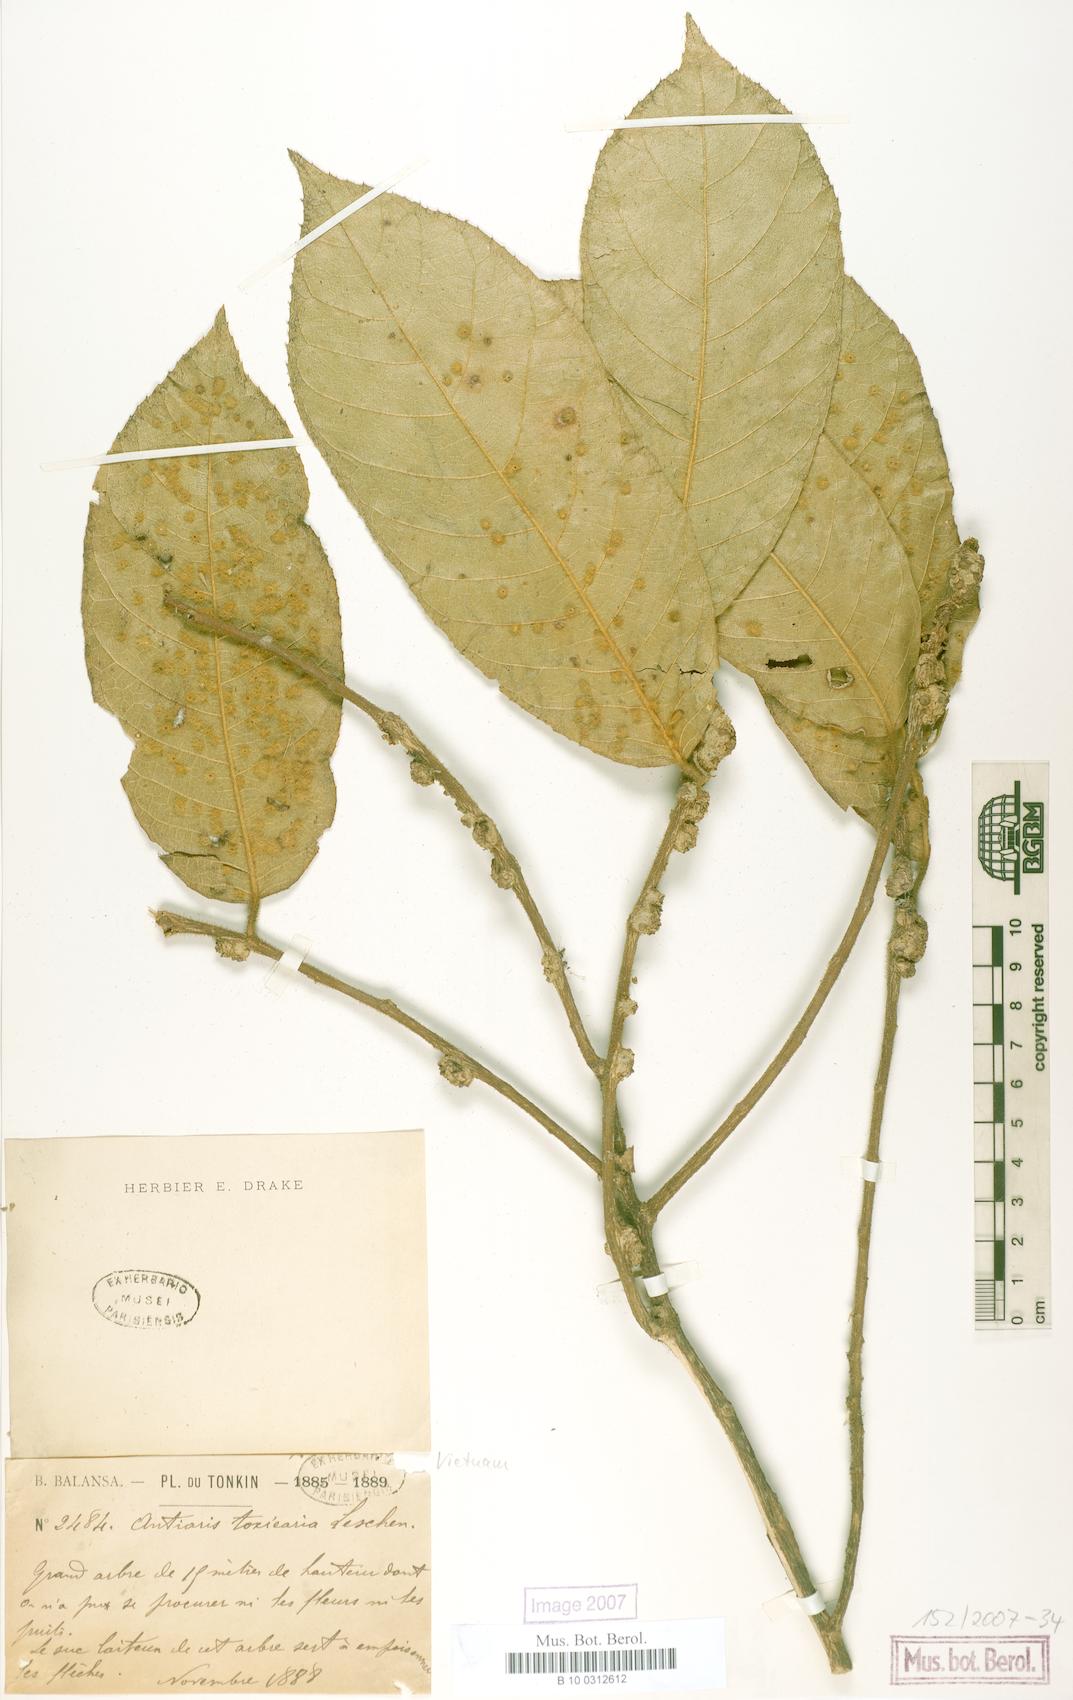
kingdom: Plantae
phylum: Tracheophyta
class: Magnoliopsida
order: Rosales
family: Moraceae
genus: Antiaris
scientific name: Antiaris toxicaria
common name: Sackingtree
